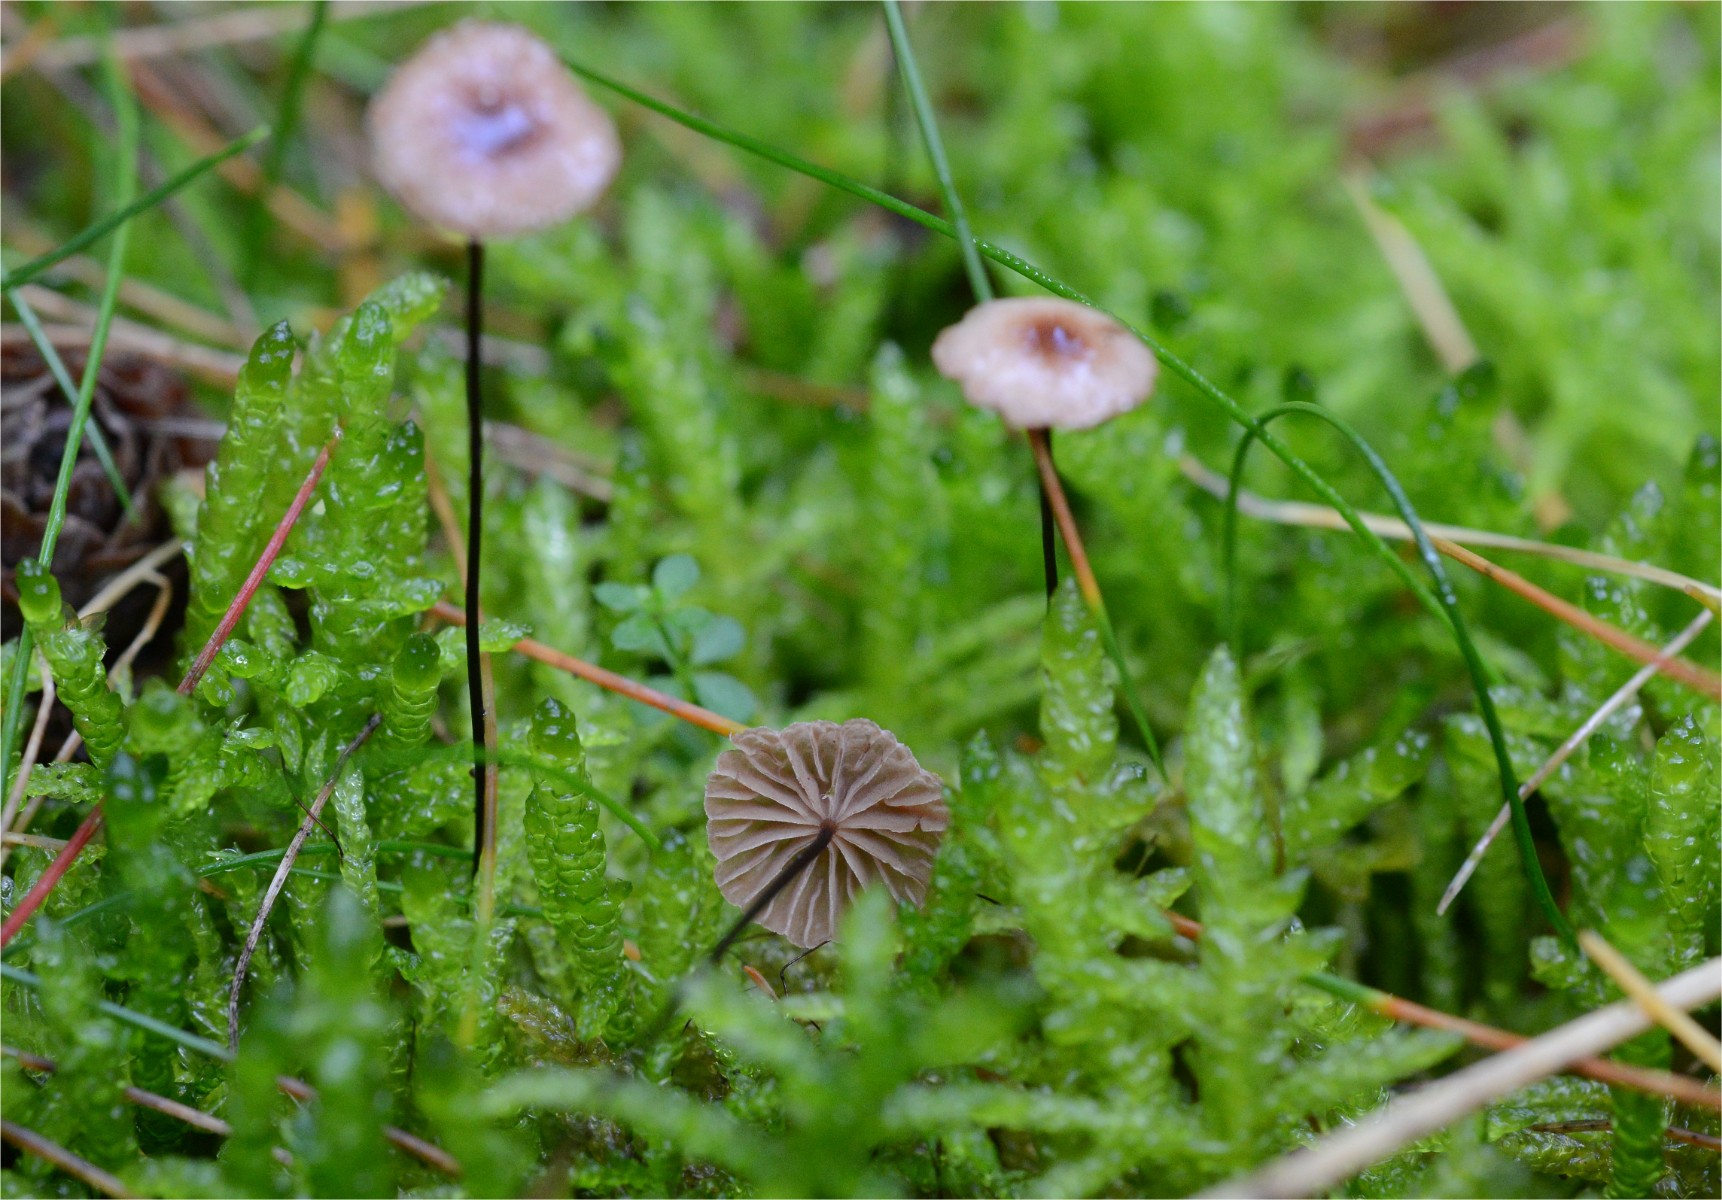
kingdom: Fungi
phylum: Basidiomycota
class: Agaricomycetes
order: Agaricales
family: Omphalotaceae
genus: Gymnopus
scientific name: Gymnopus androsaceus
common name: trådstokket fladhat
